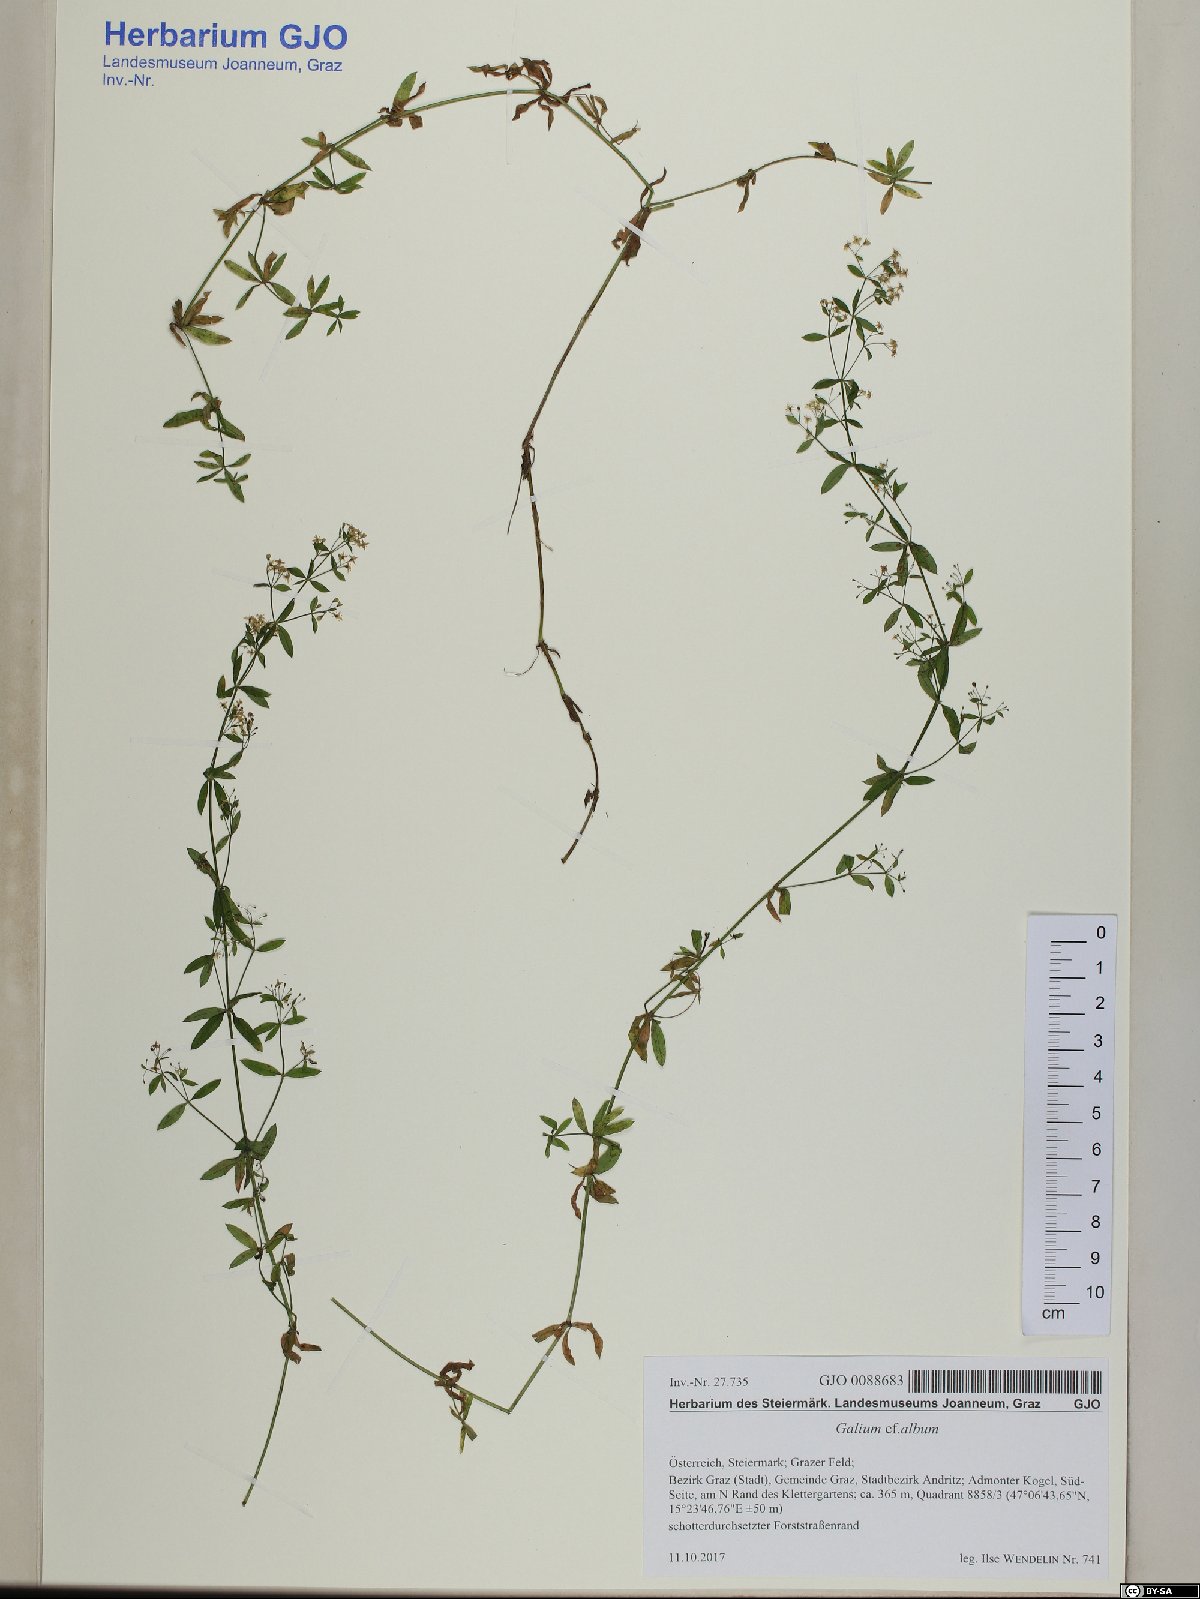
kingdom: Plantae
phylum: Tracheophyta
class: Magnoliopsida
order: Gentianales
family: Rubiaceae
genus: Galium
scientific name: Galium album
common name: White bedstraw
